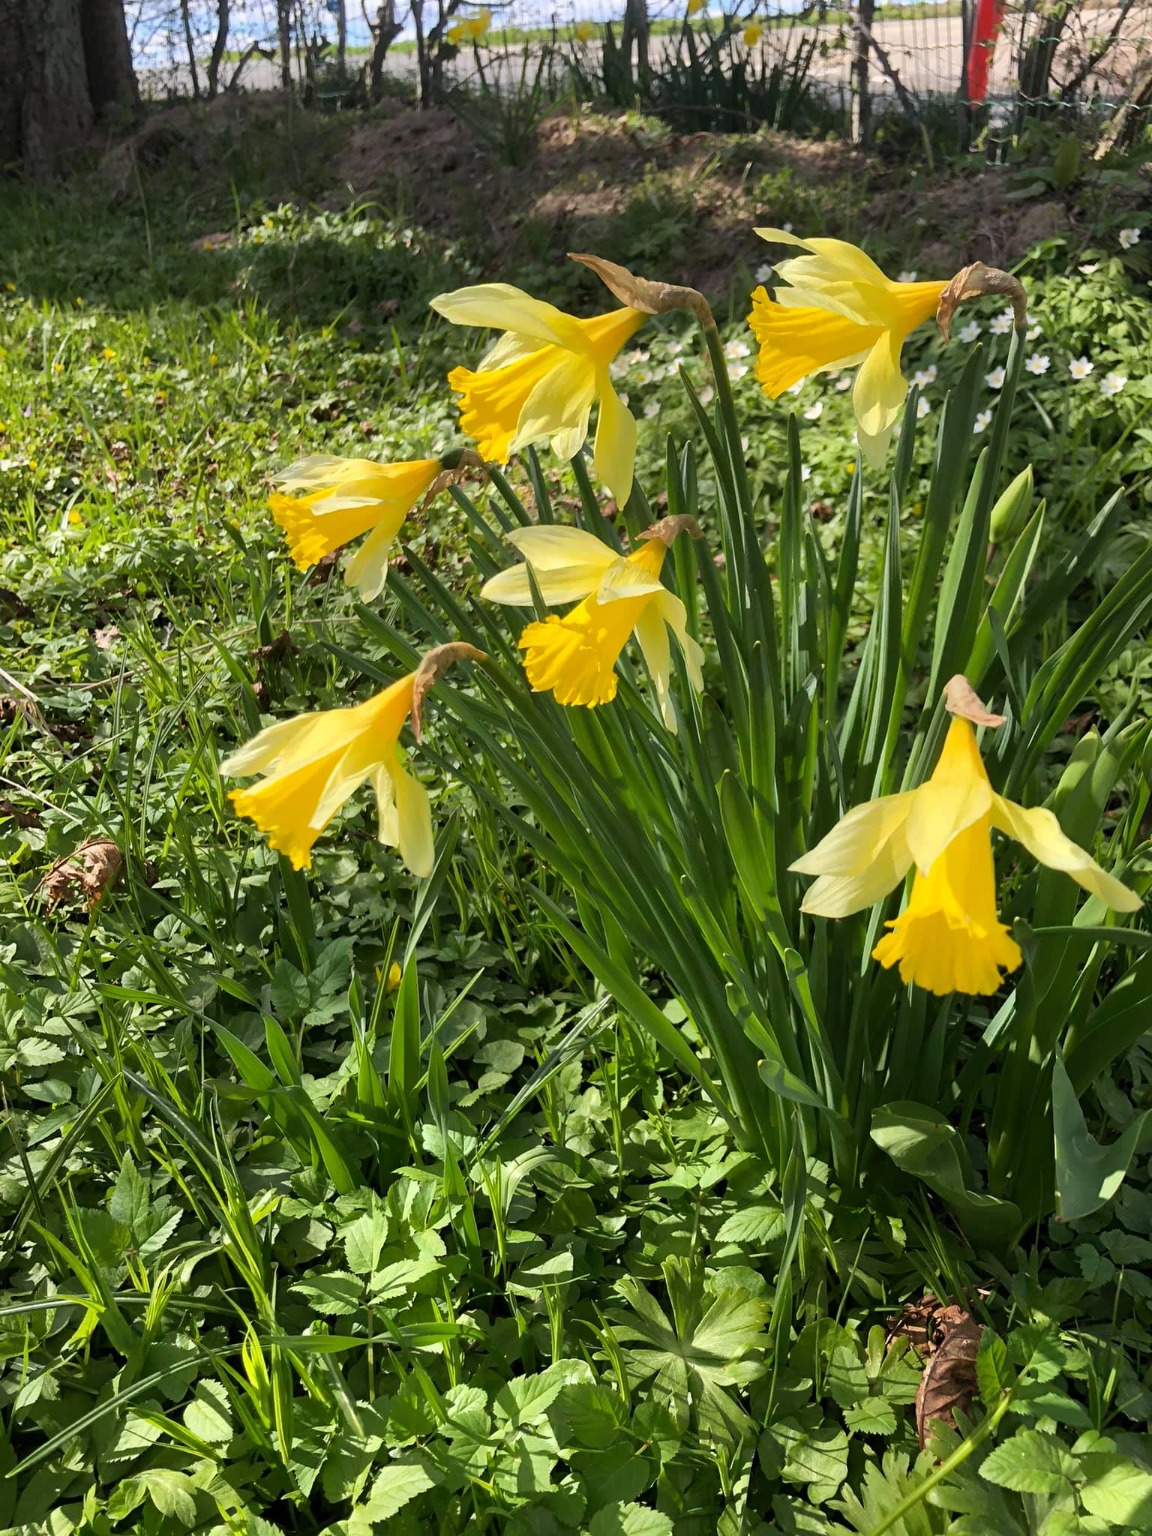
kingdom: Plantae
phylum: Tracheophyta
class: Liliopsida
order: Asparagales
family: Amaryllidaceae
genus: Narcissus
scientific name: Narcissus pseudonarcissus
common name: Påskelilje
